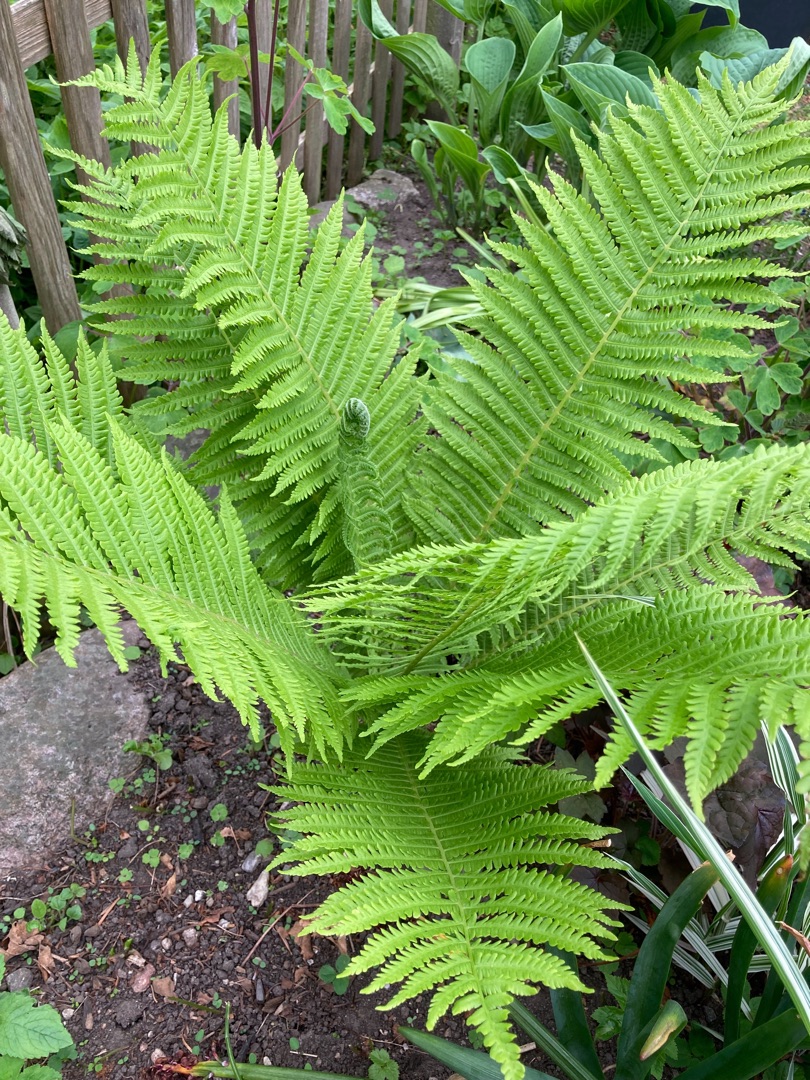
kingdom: Plantae
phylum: Tracheophyta
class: Polypodiopsida
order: Polypodiales
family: Onocleaceae
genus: Matteuccia
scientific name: Matteuccia struthiopteris
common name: Strudsvinge
